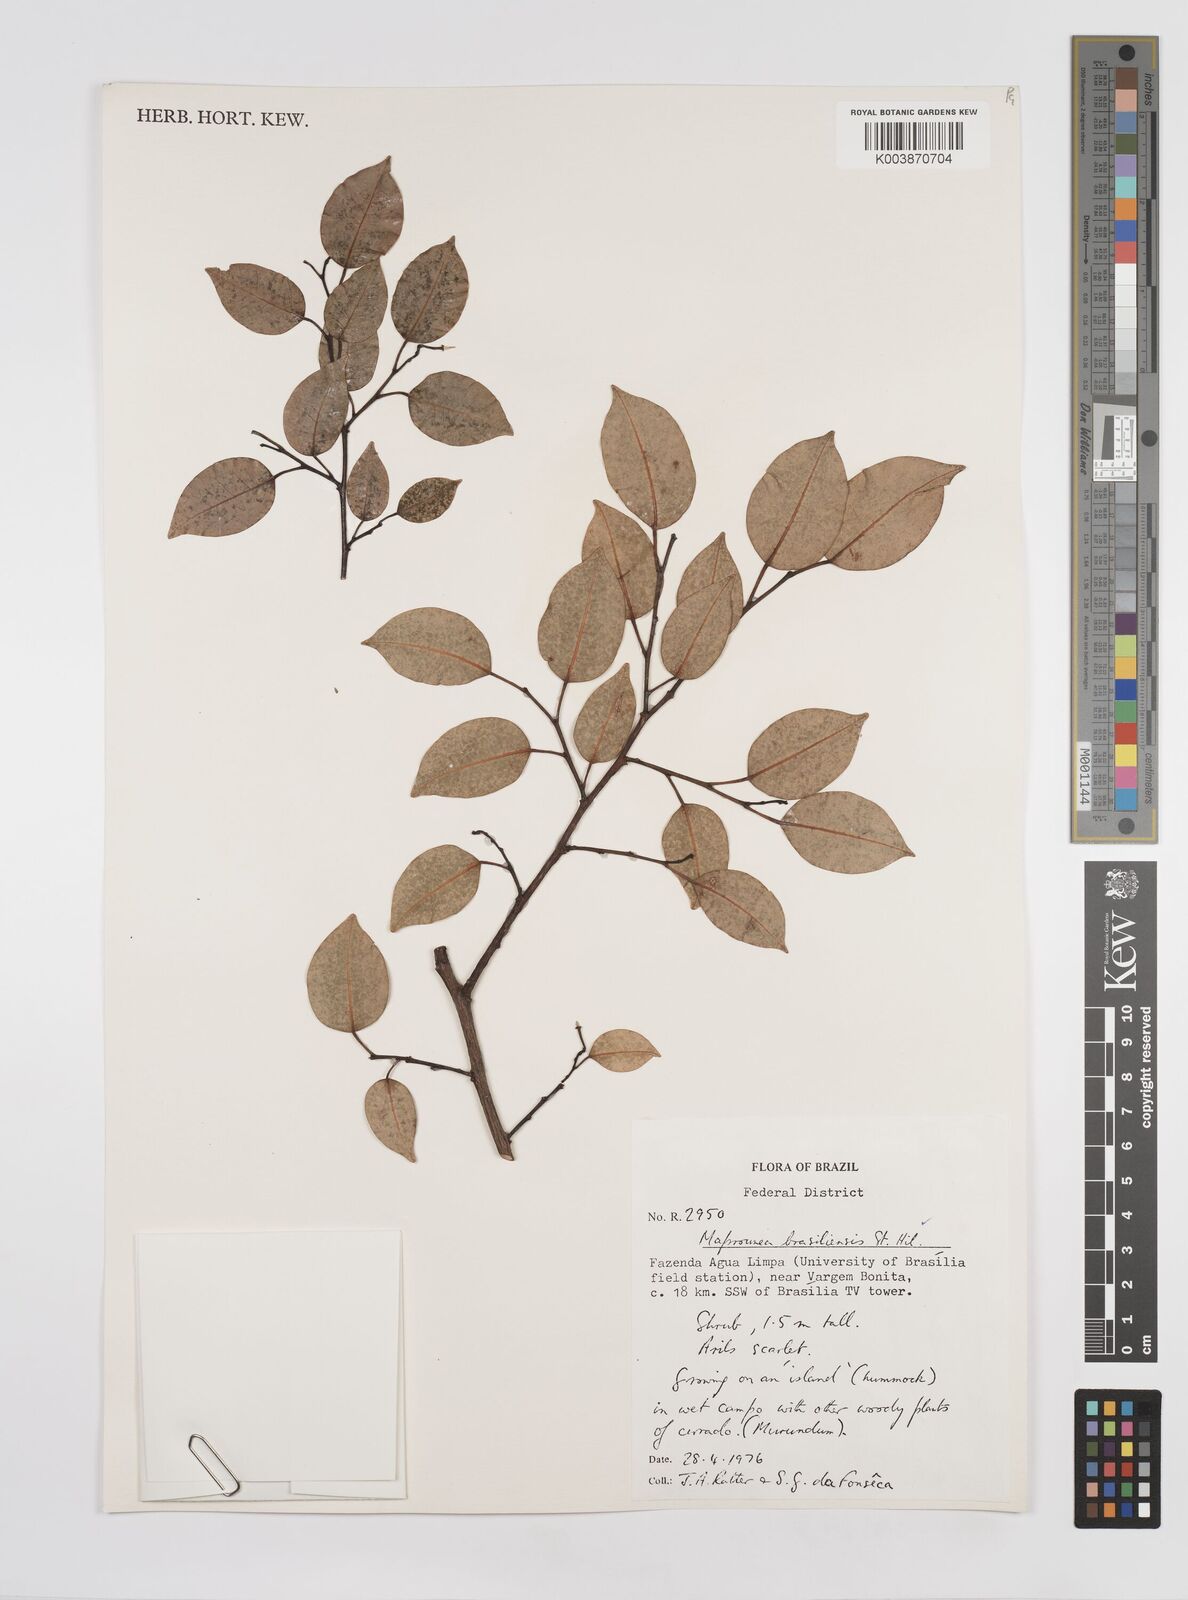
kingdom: Plantae
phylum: Tracheophyta
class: Magnoliopsida
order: Malpighiales
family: Euphorbiaceae
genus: Maprounea
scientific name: Maprounea brasiliensis
